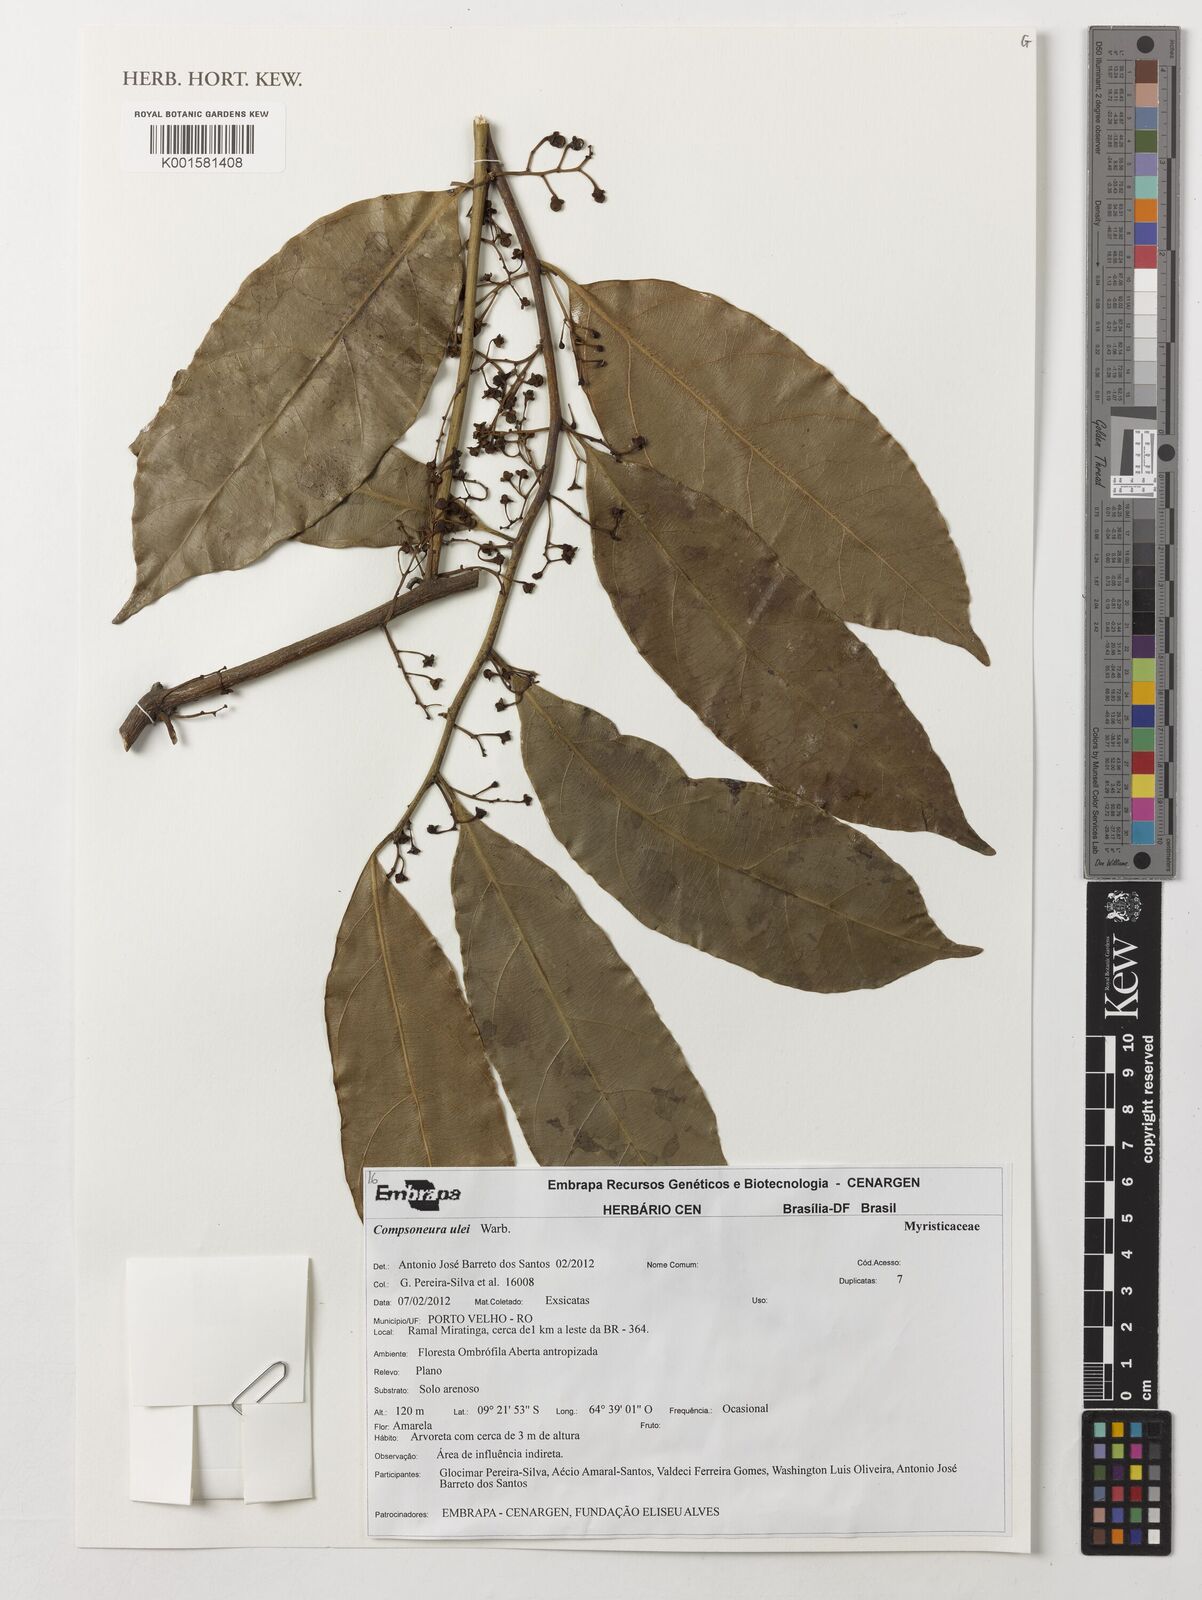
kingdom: Plantae
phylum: Tracheophyta
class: Magnoliopsida
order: Magnoliales
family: Myristicaceae
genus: Compsoneura
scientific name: Compsoneura ulei
